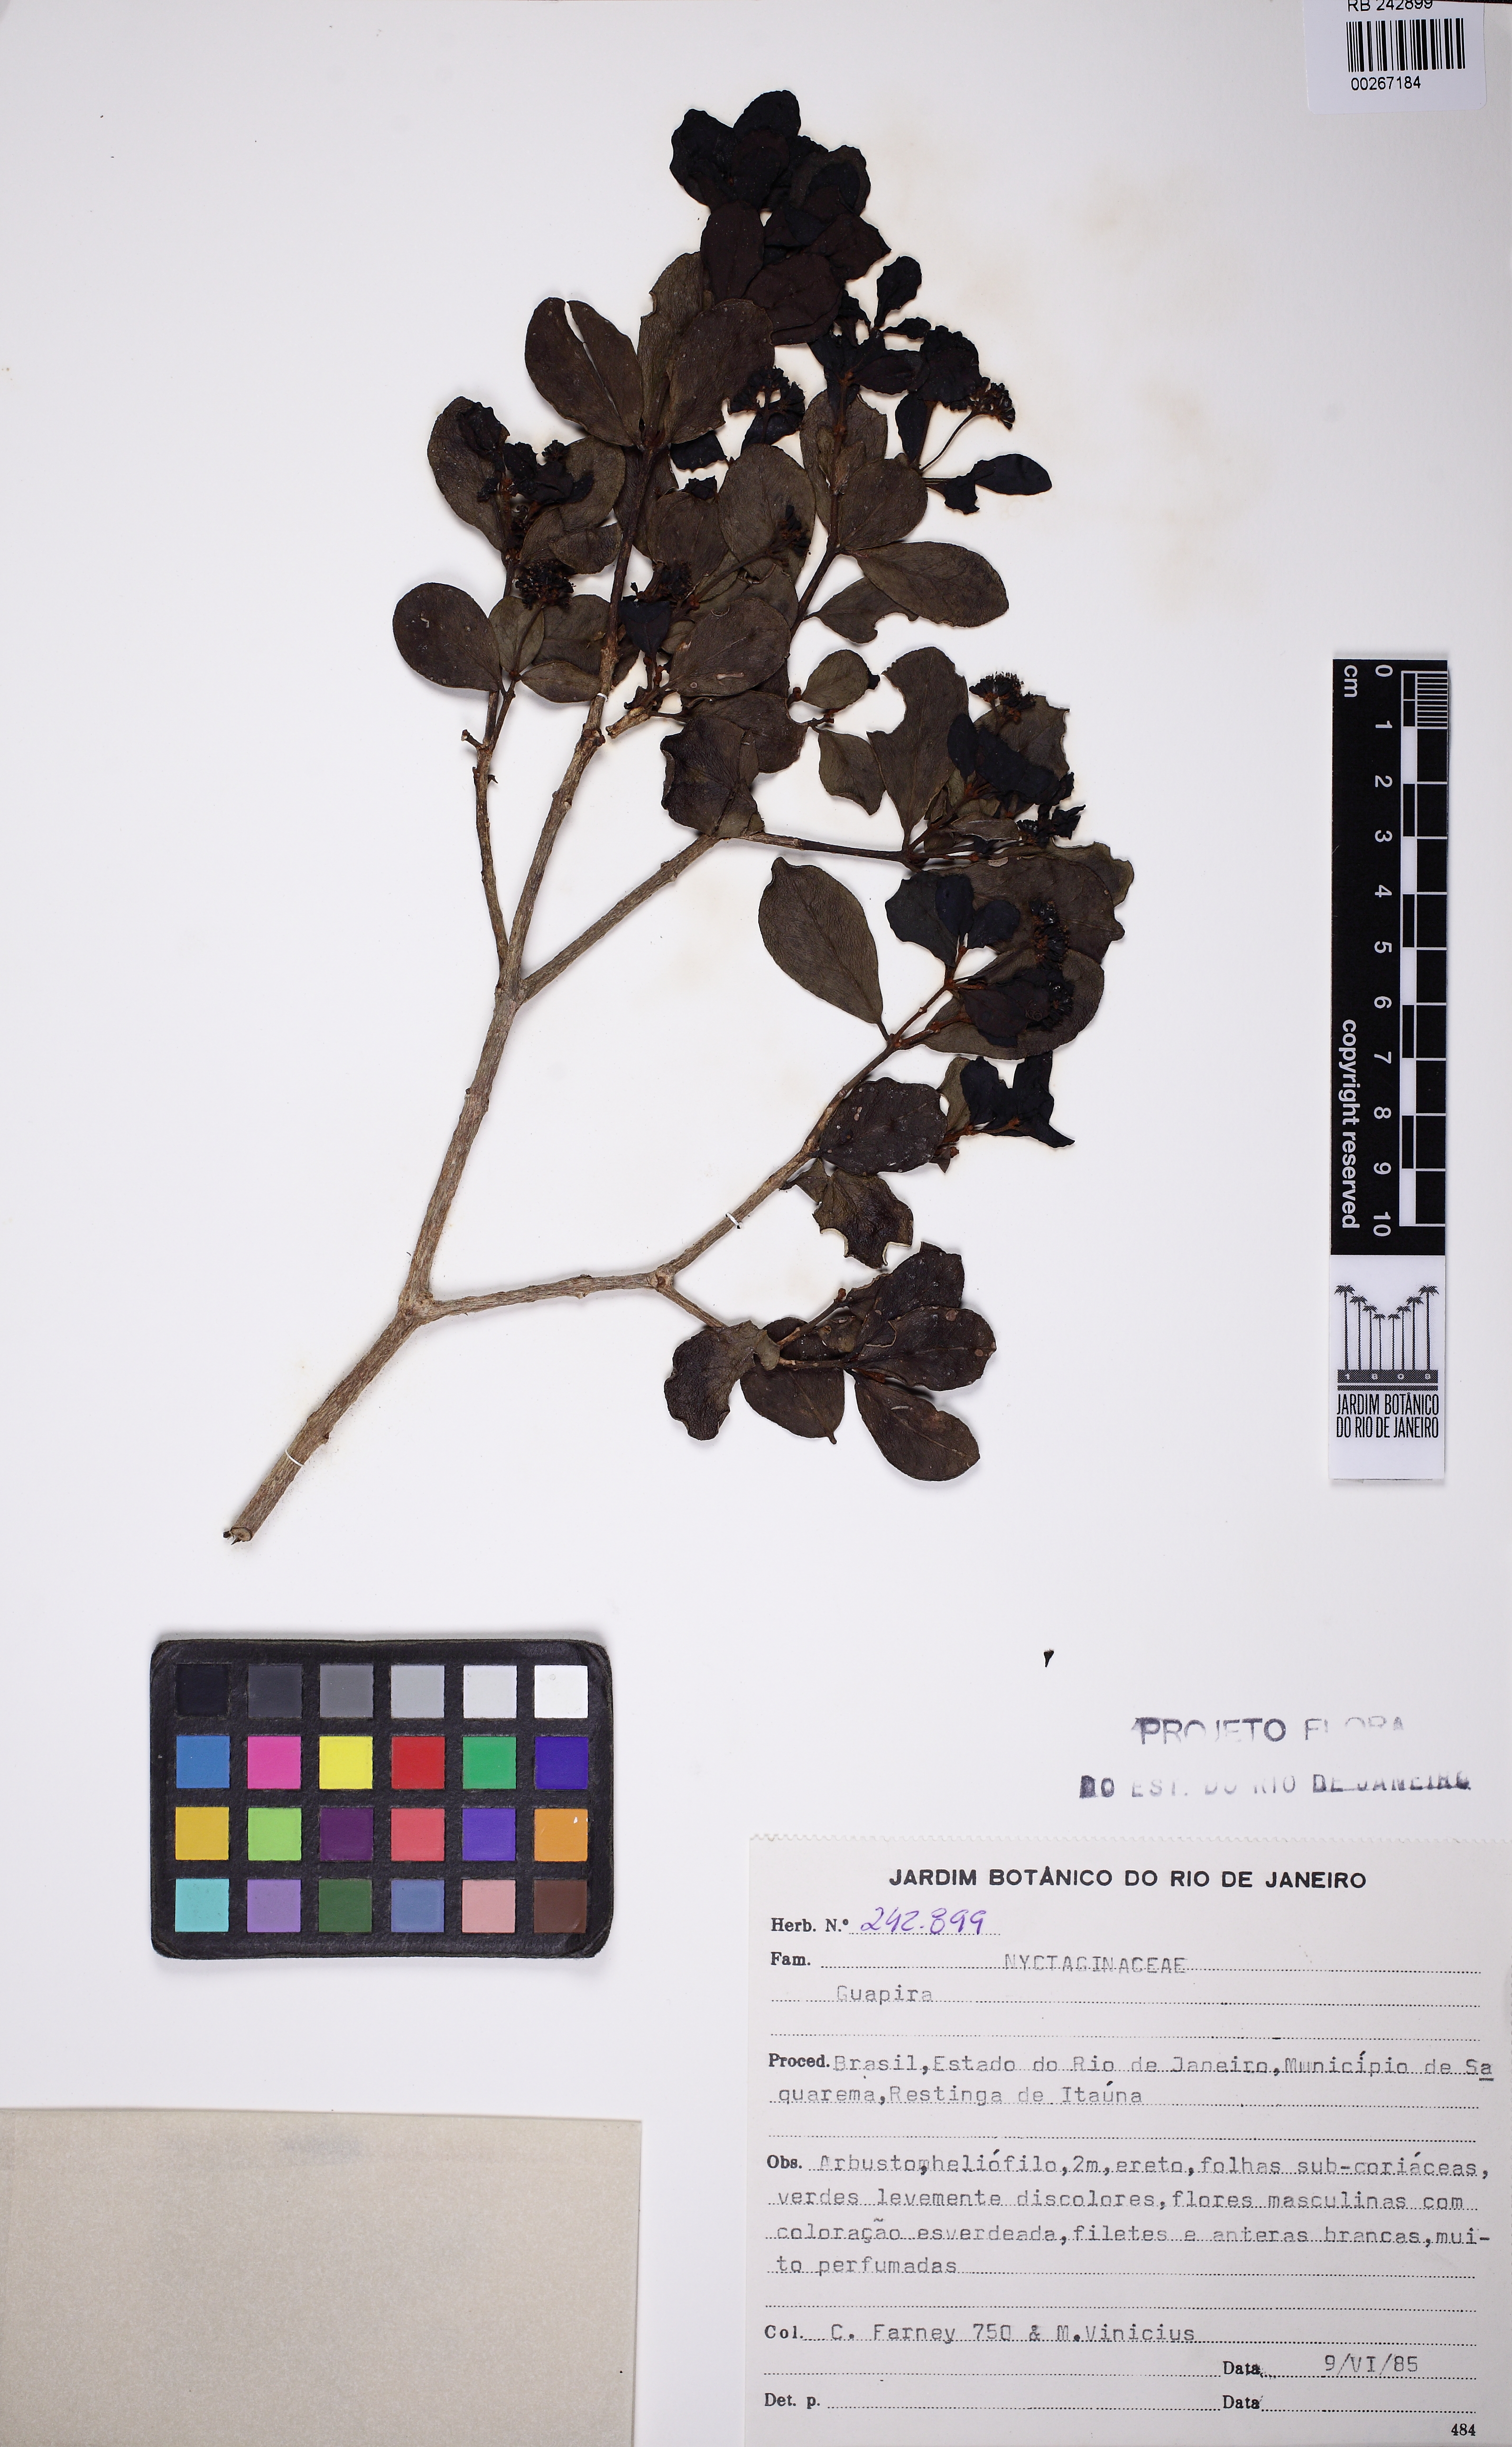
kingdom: Plantae
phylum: Tracheophyta
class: Magnoliopsida
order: Caryophyllales
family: Nyctaginaceae
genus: Guapira
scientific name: Guapira obtusata
